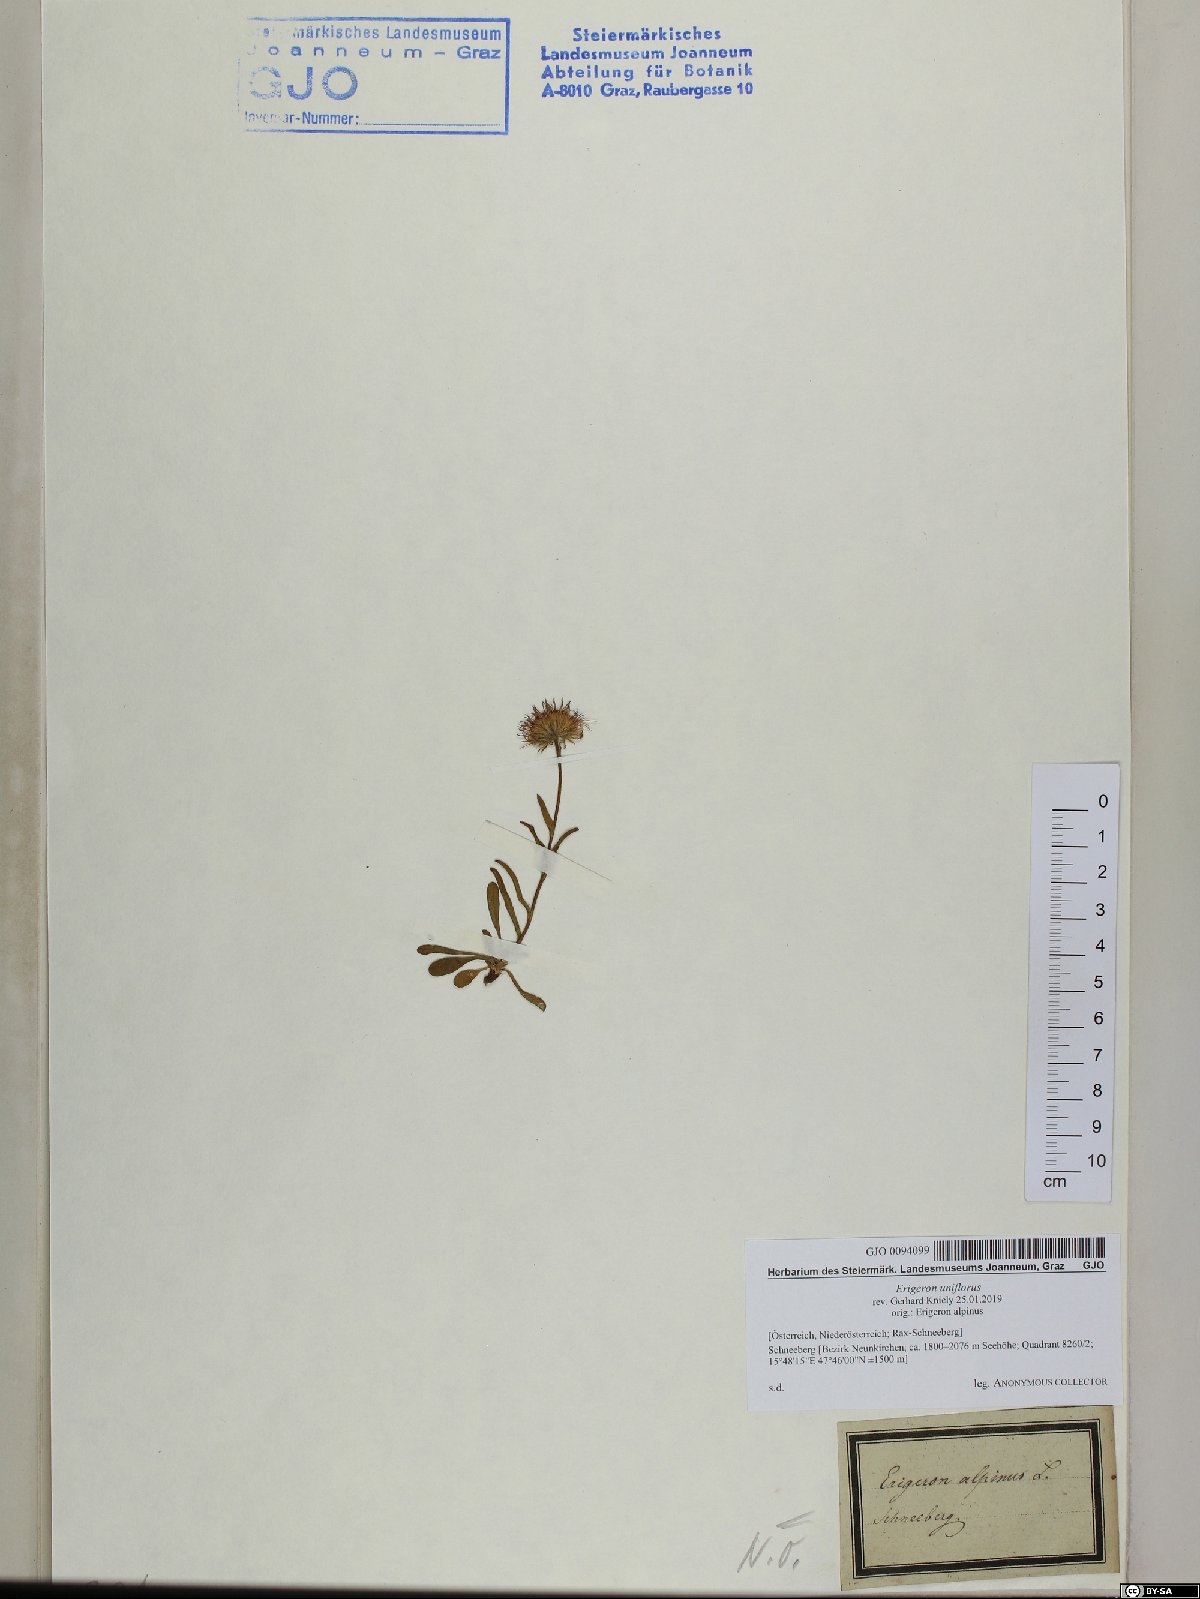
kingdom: Plantae
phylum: Tracheophyta
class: Magnoliopsida
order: Asterales
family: Asteraceae
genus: Erigeron
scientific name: Erigeron uniflorus
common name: Northern daisy
